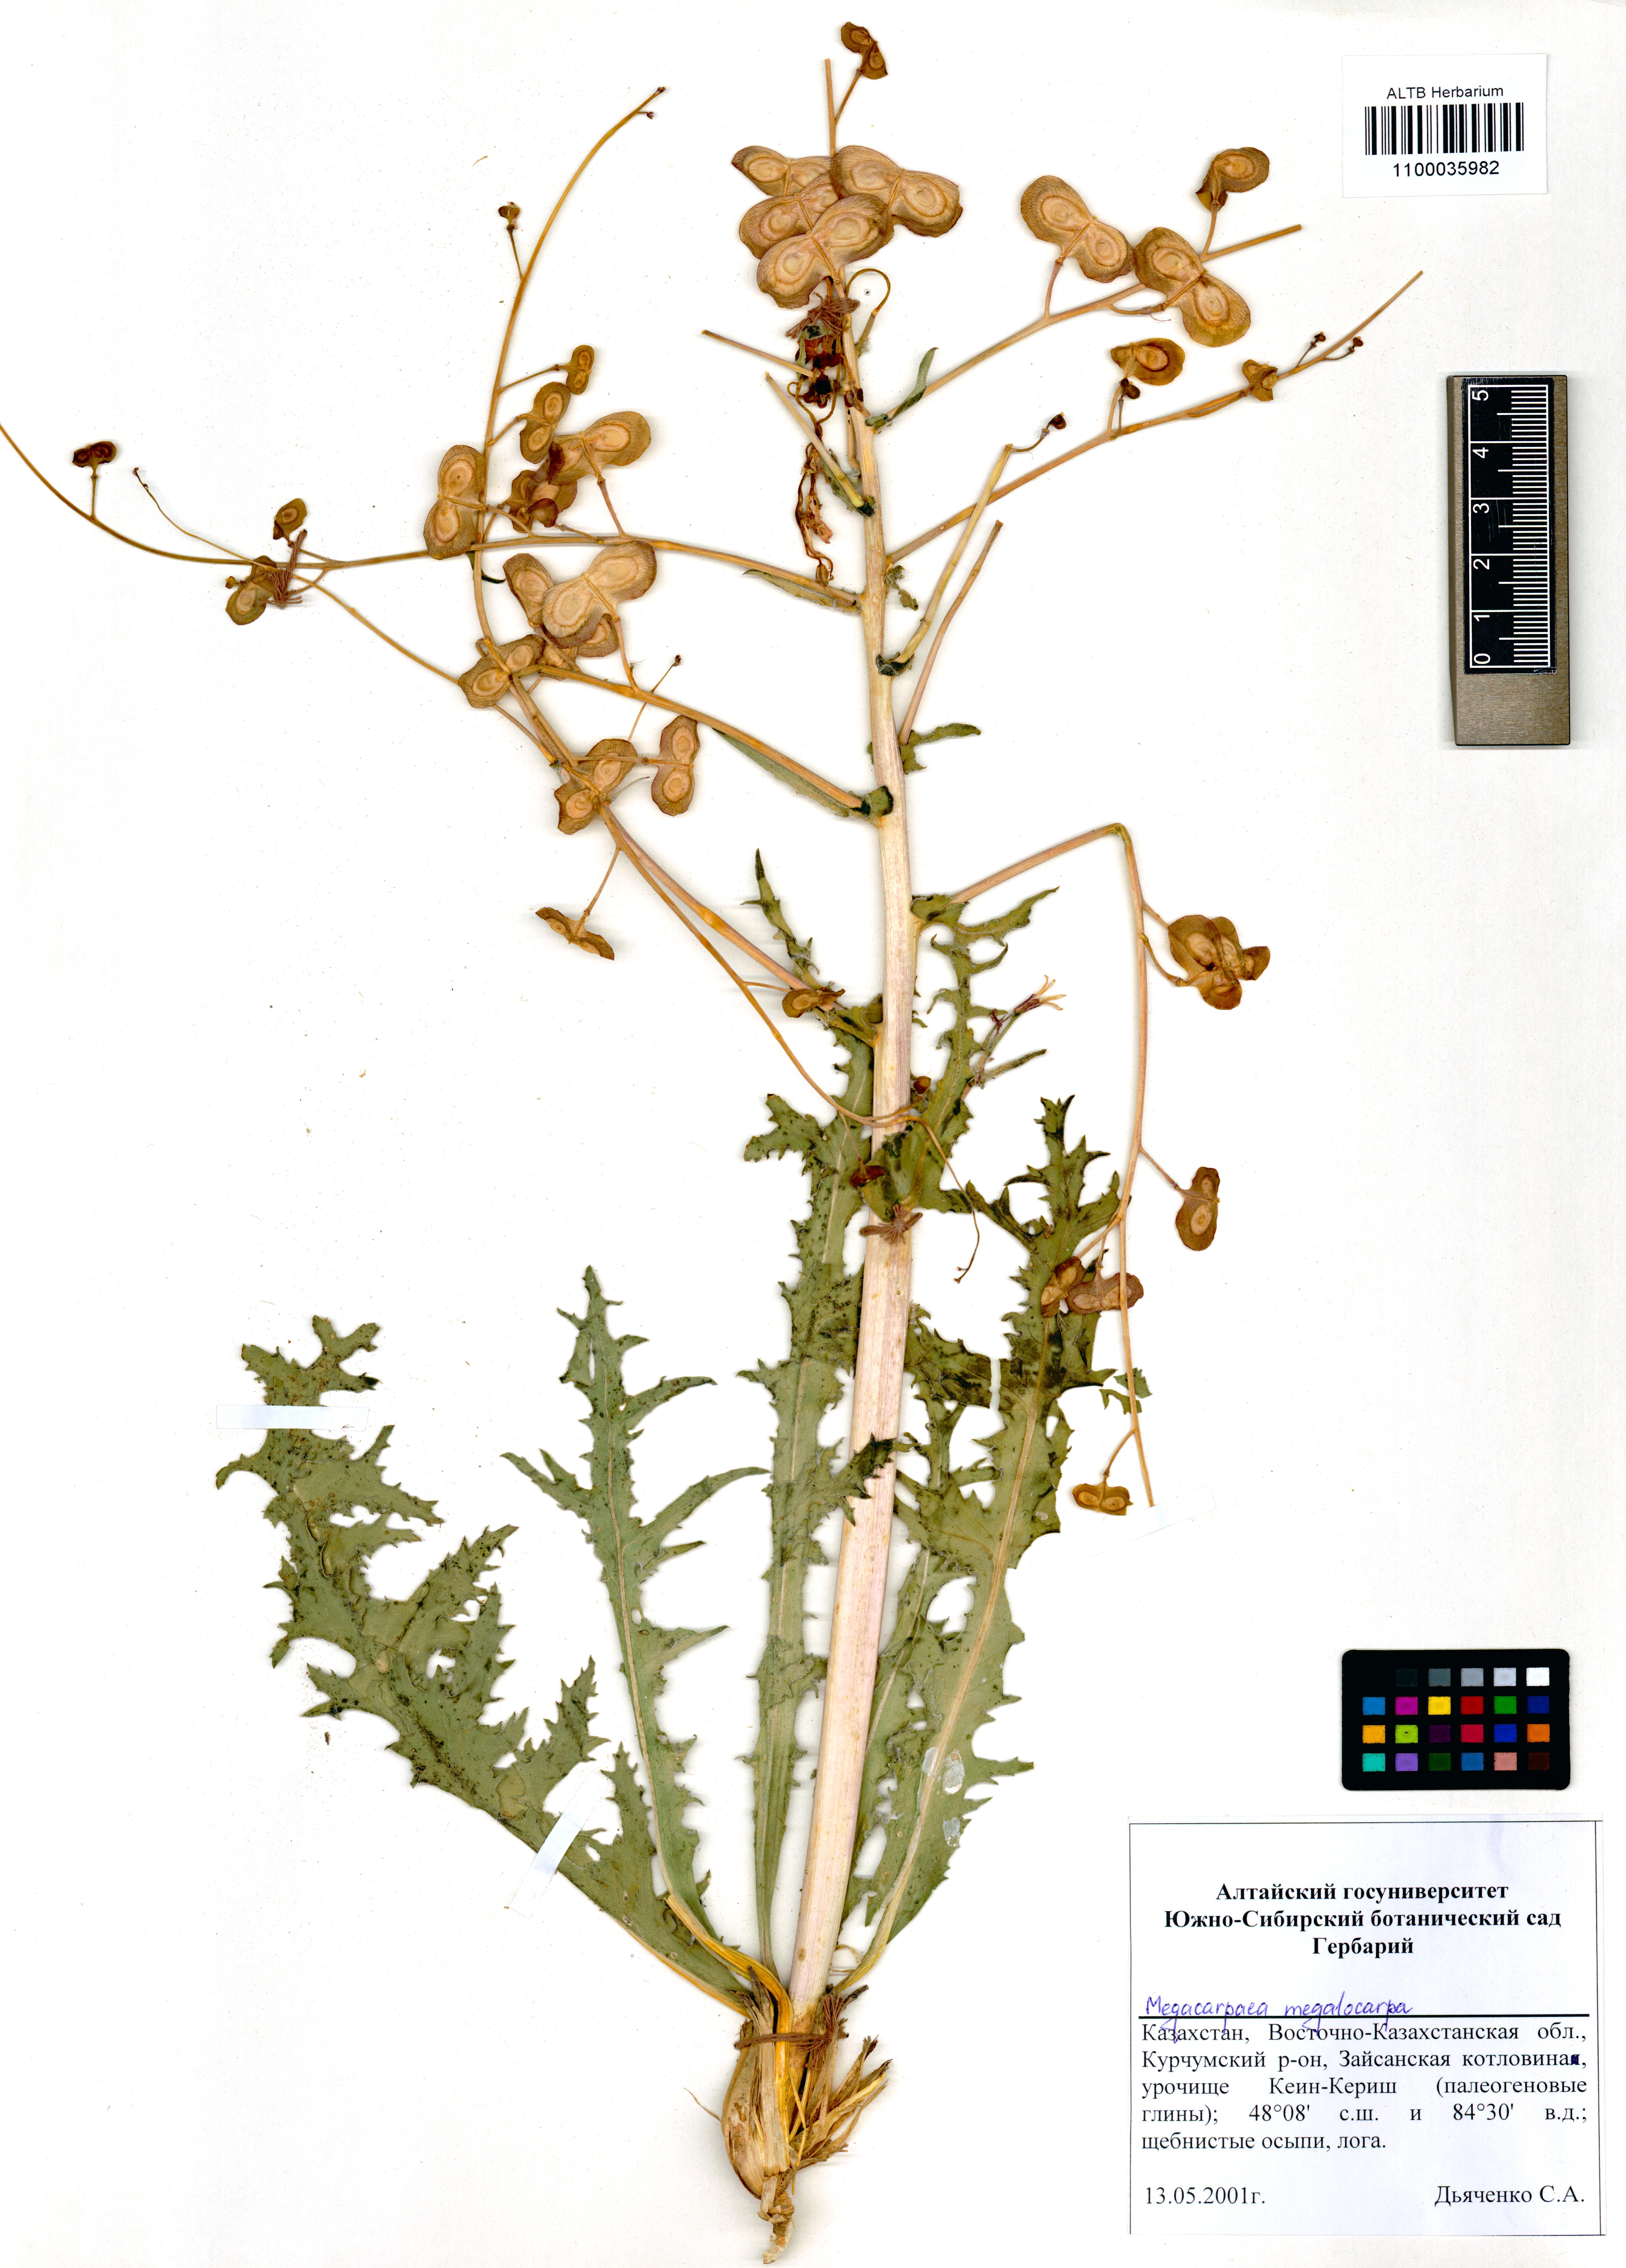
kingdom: Plantae
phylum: Tracheophyta
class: Magnoliopsida
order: Brassicales
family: Brassicaceae
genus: Megacarpaea
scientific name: Megacarpaea megalocarpa
